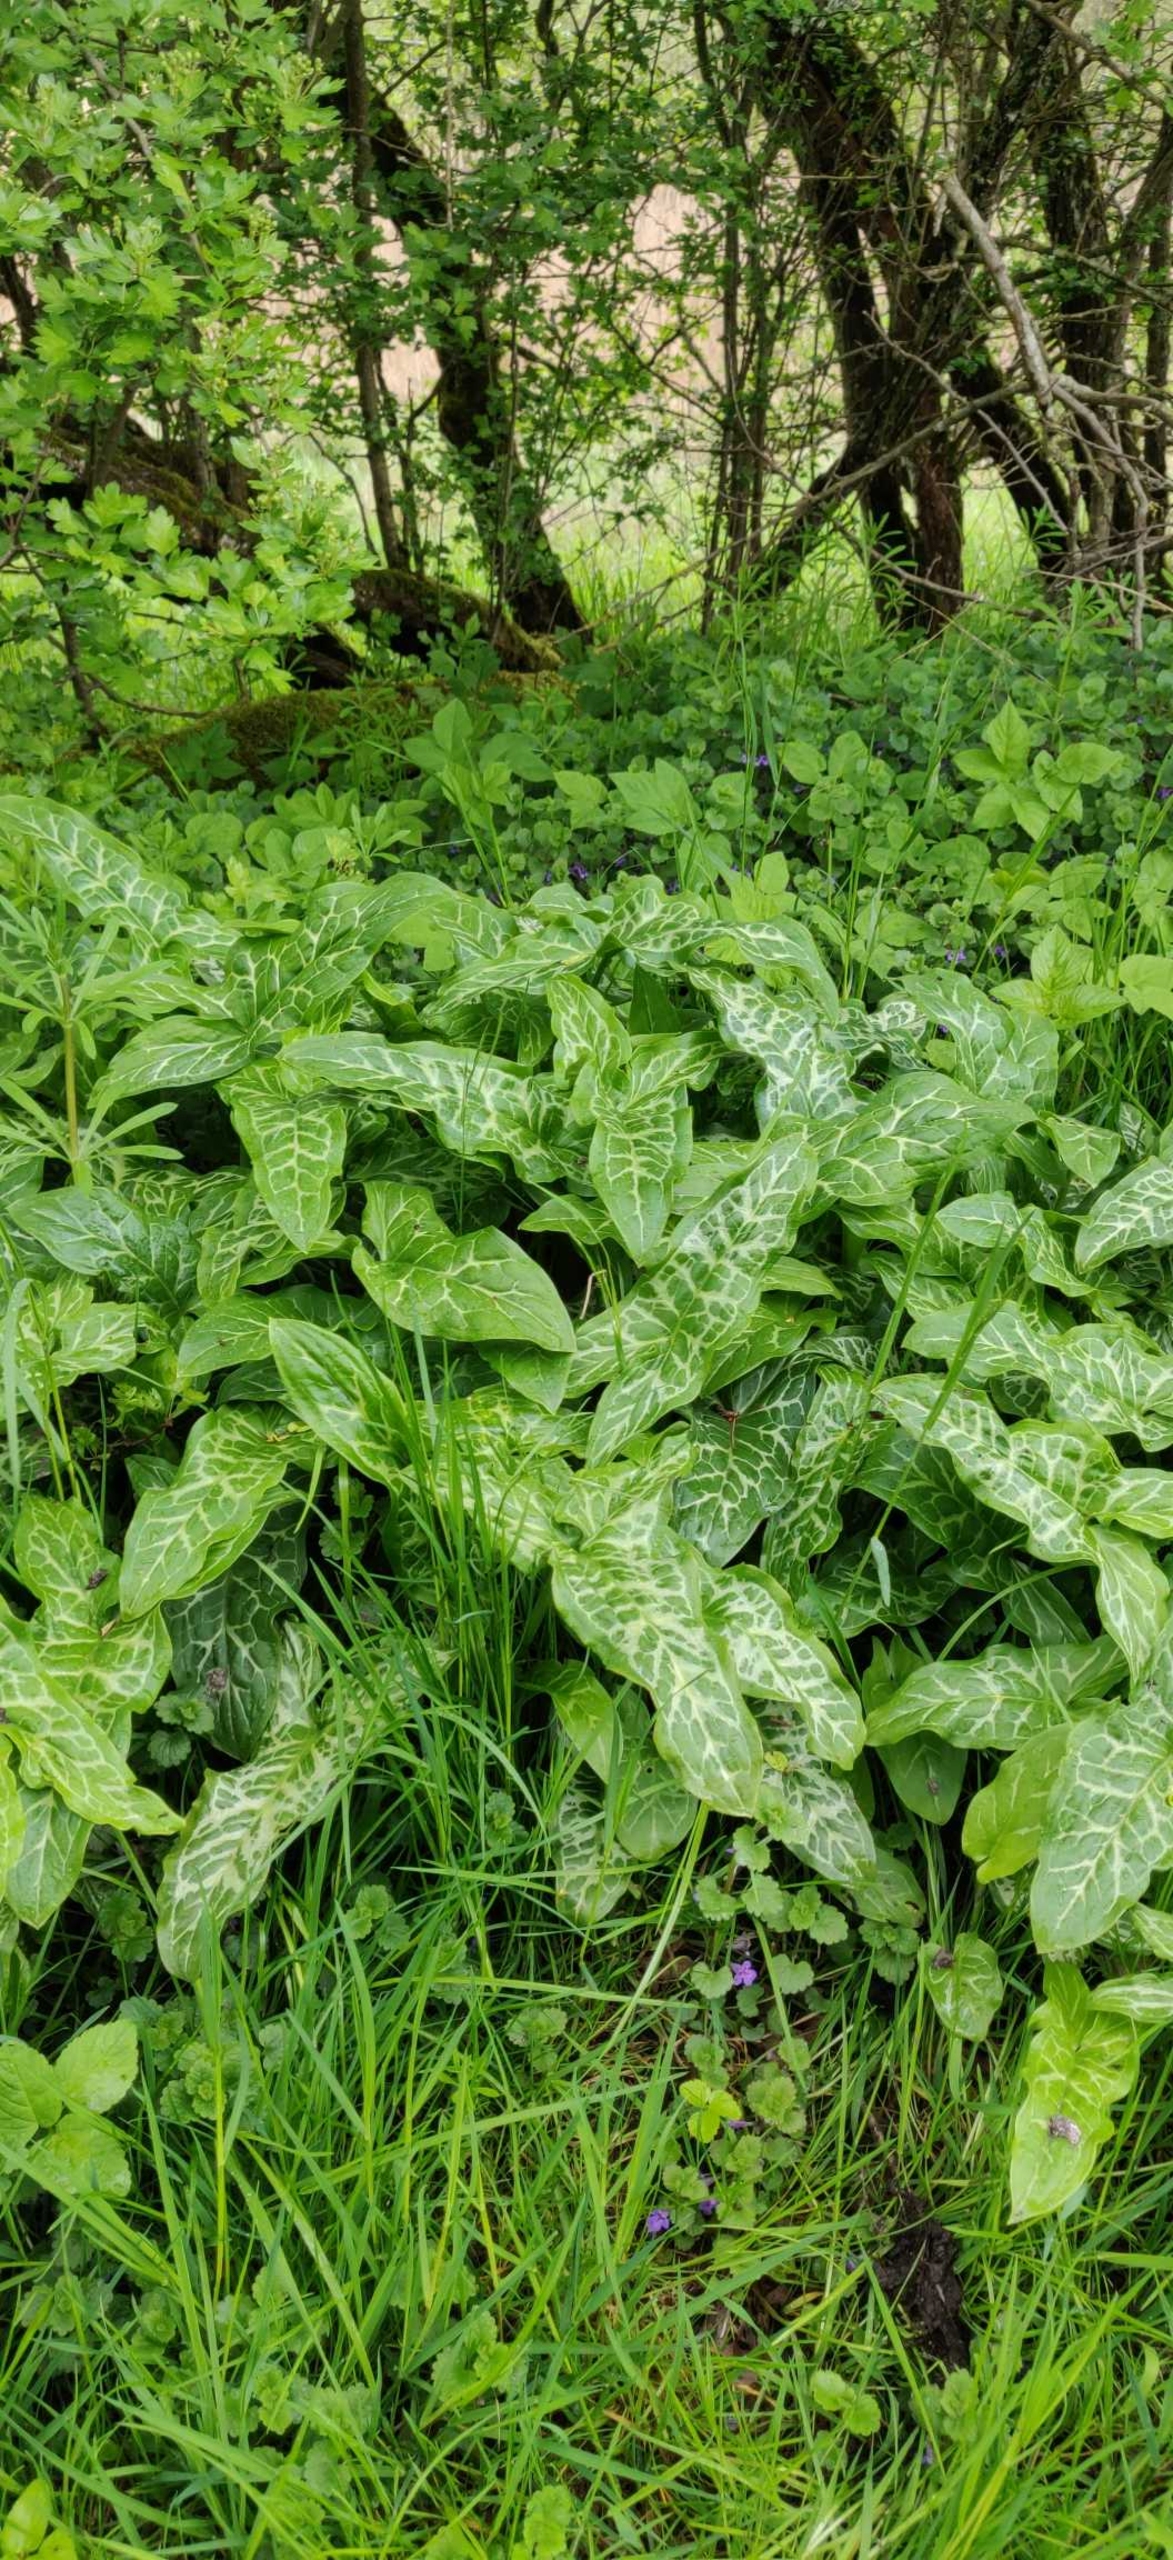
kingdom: Plantae
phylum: Tracheophyta
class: Liliopsida
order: Alismatales
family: Araceae
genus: Arum
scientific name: Arum italicum
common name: Italiensk arum
